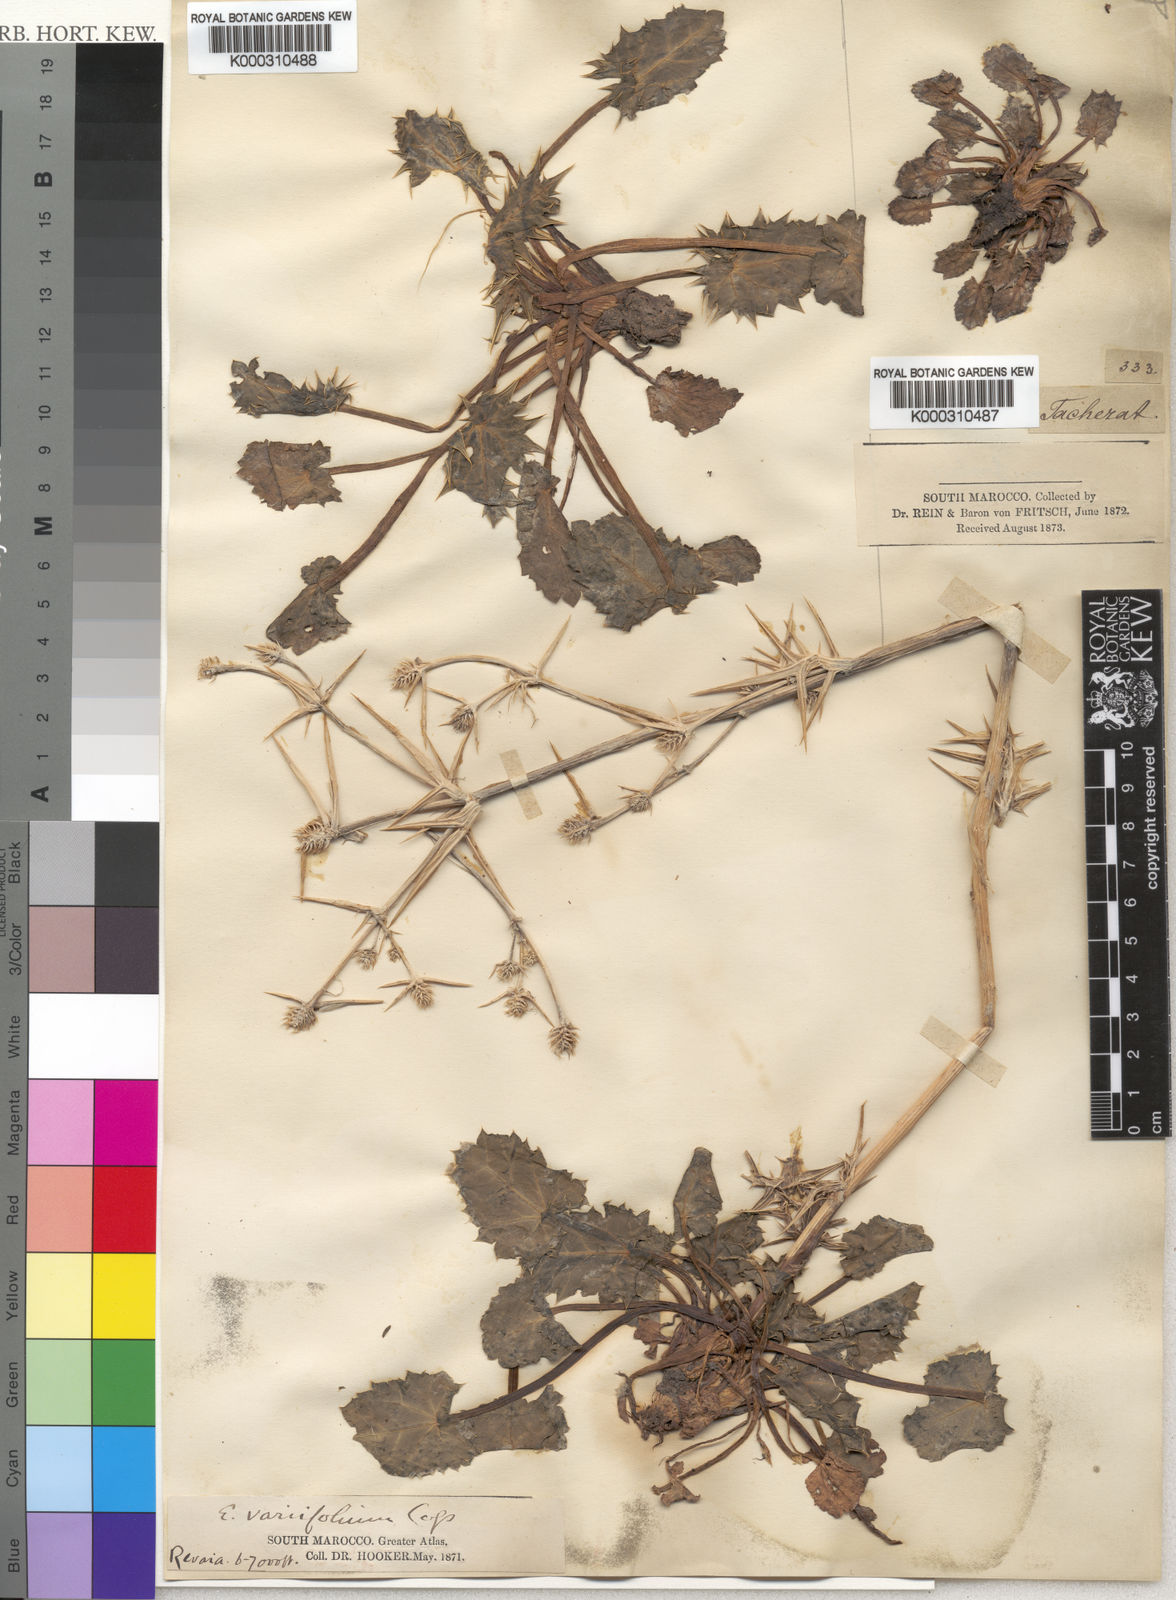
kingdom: Plantae
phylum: Tracheophyta
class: Magnoliopsida
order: Apiales
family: Apiaceae
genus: Eryngium
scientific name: Eryngium variifolium
